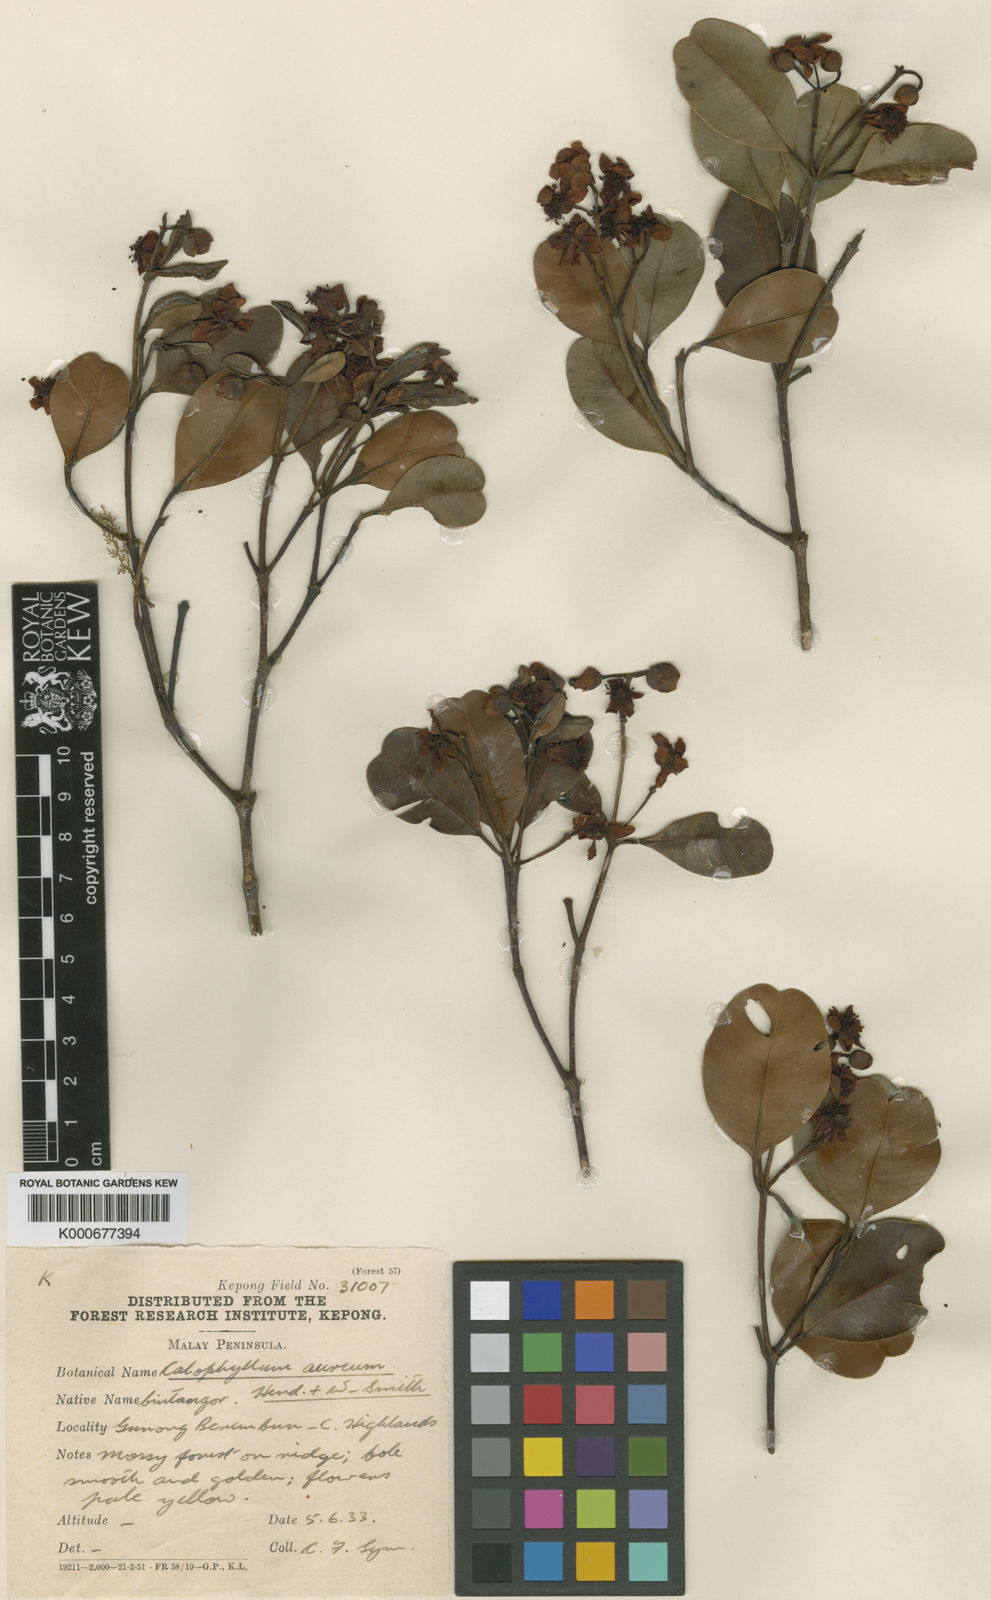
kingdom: Plantae
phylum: Tracheophyta
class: Magnoliopsida
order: Malpighiales
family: Calophyllaceae
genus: Calophyllum
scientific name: Calophyllum aureum
